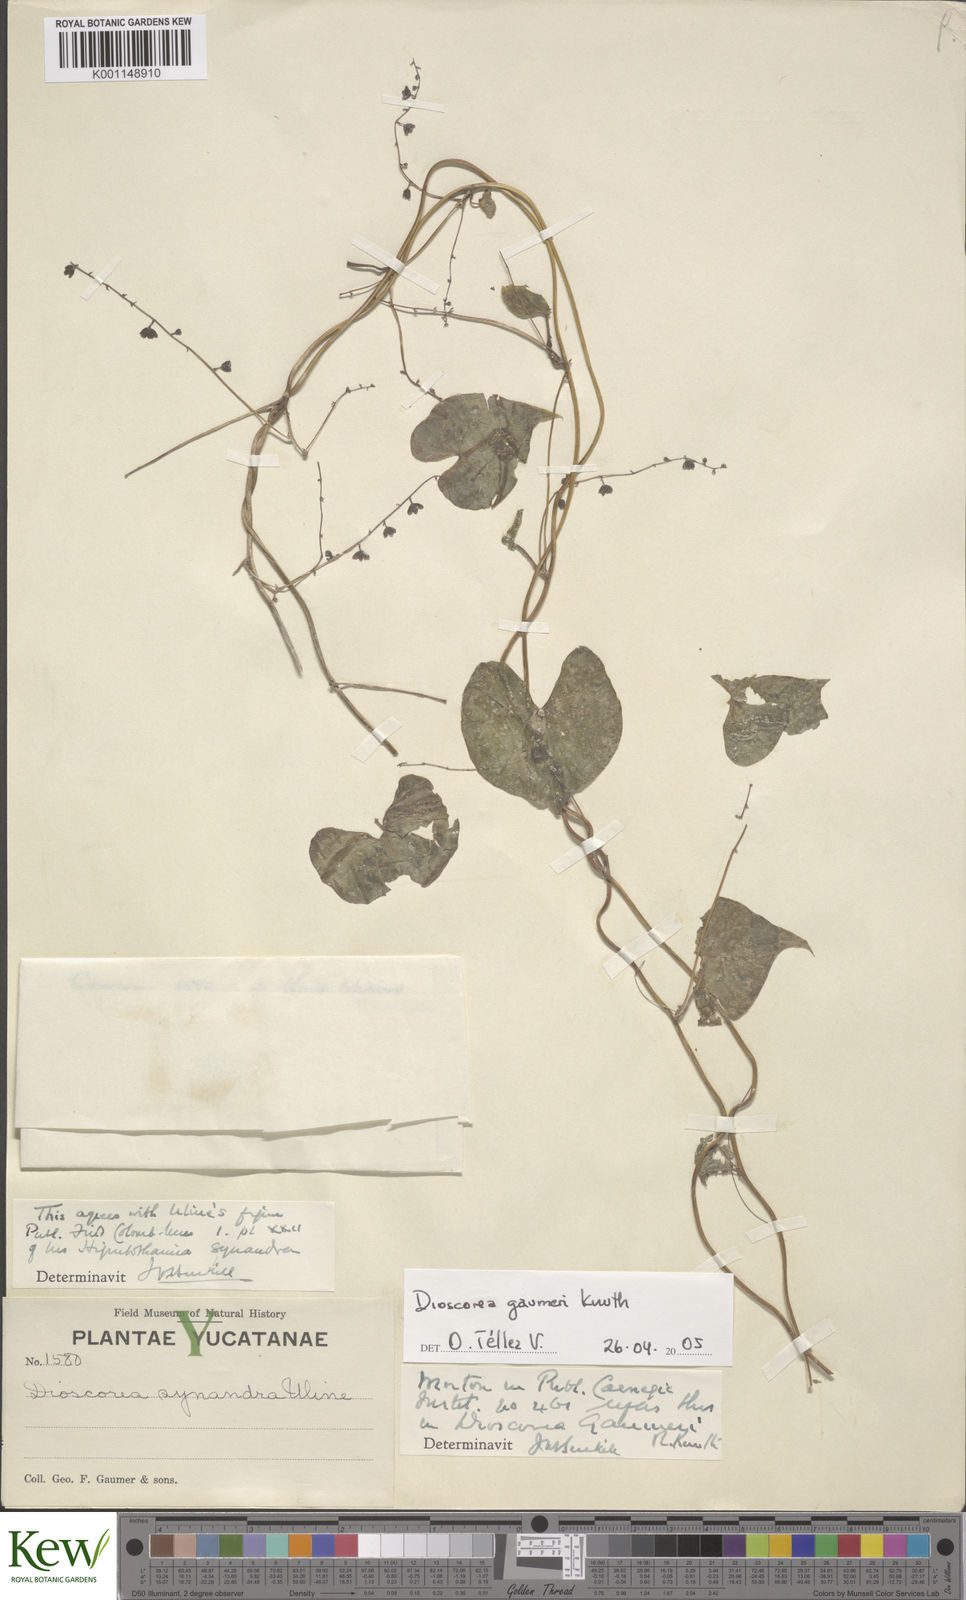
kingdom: Plantae
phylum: Tracheophyta
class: Liliopsida
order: Dioscoreales
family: Dioscoreaceae
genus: Dioscorea
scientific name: Dioscorea gaumeri
